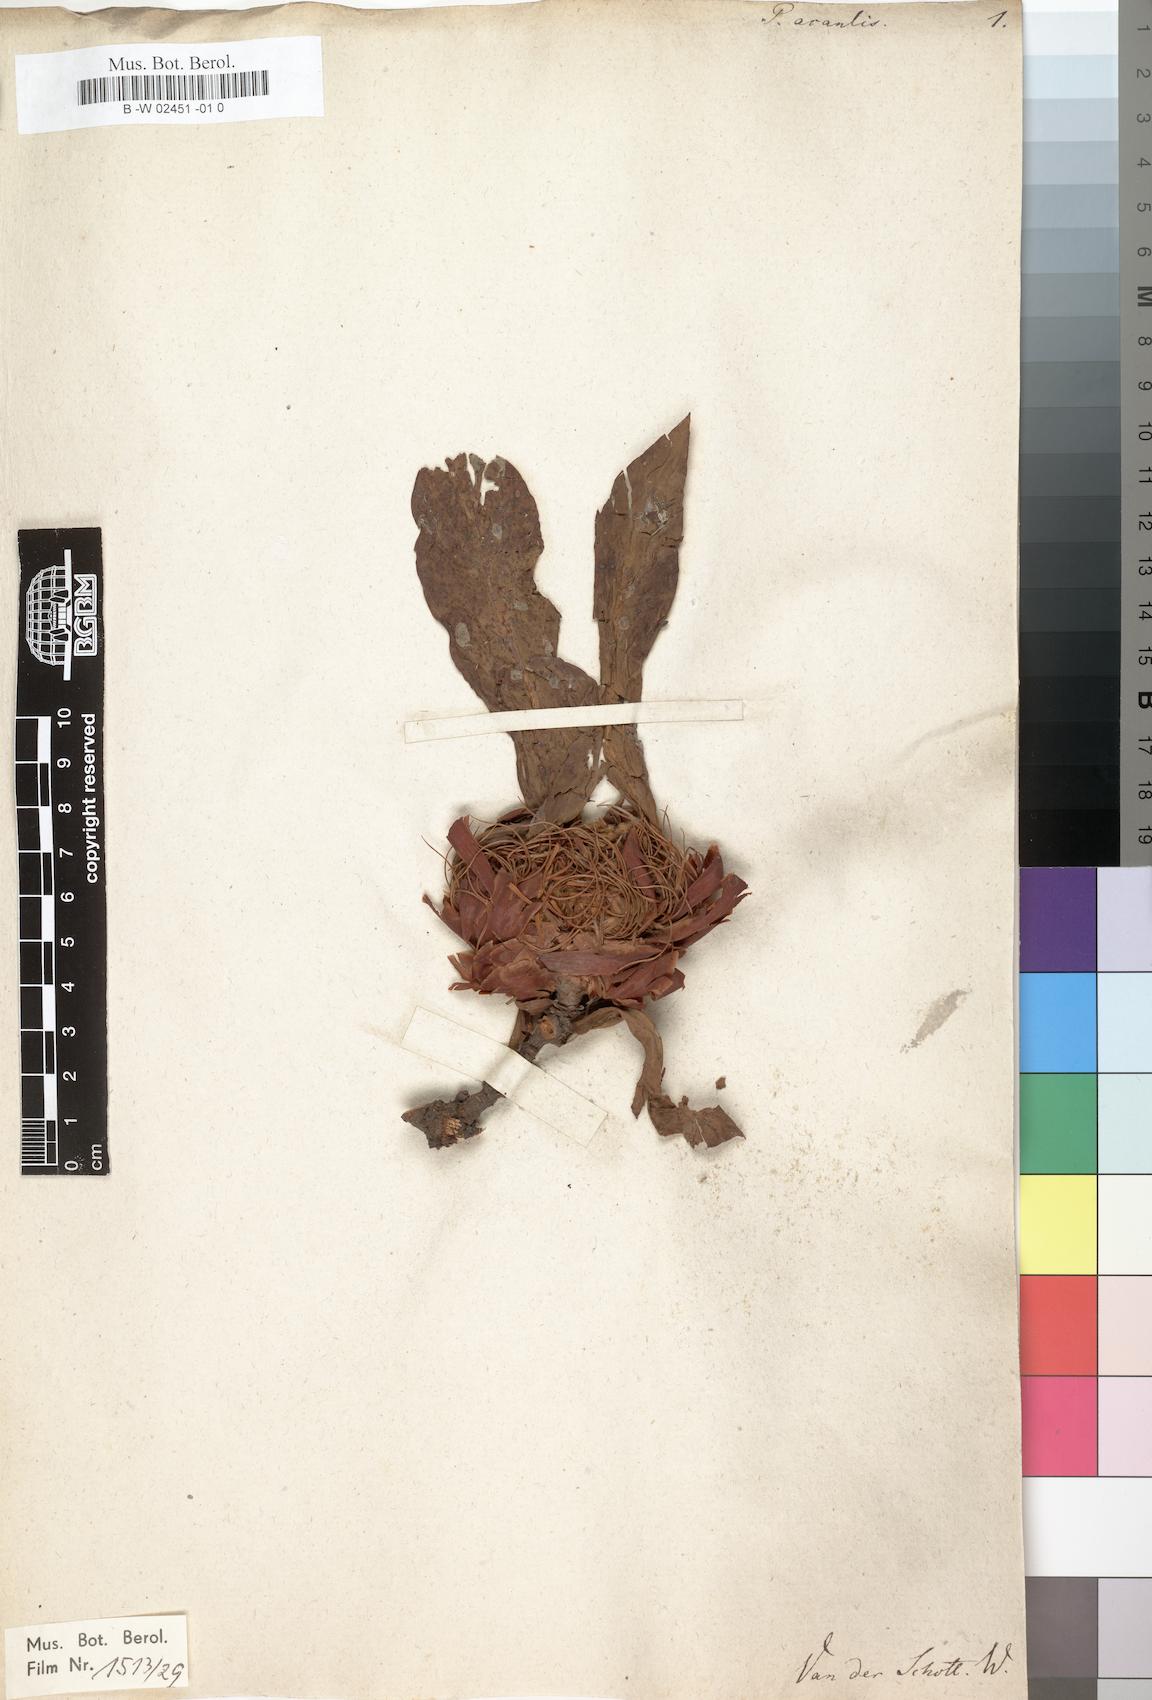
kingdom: Plantae
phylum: Tracheophyta
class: Magnoliopsida
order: Proteales
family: Proteaceae
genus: Protea
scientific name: Protea acaulos
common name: Common ground sugarbush
